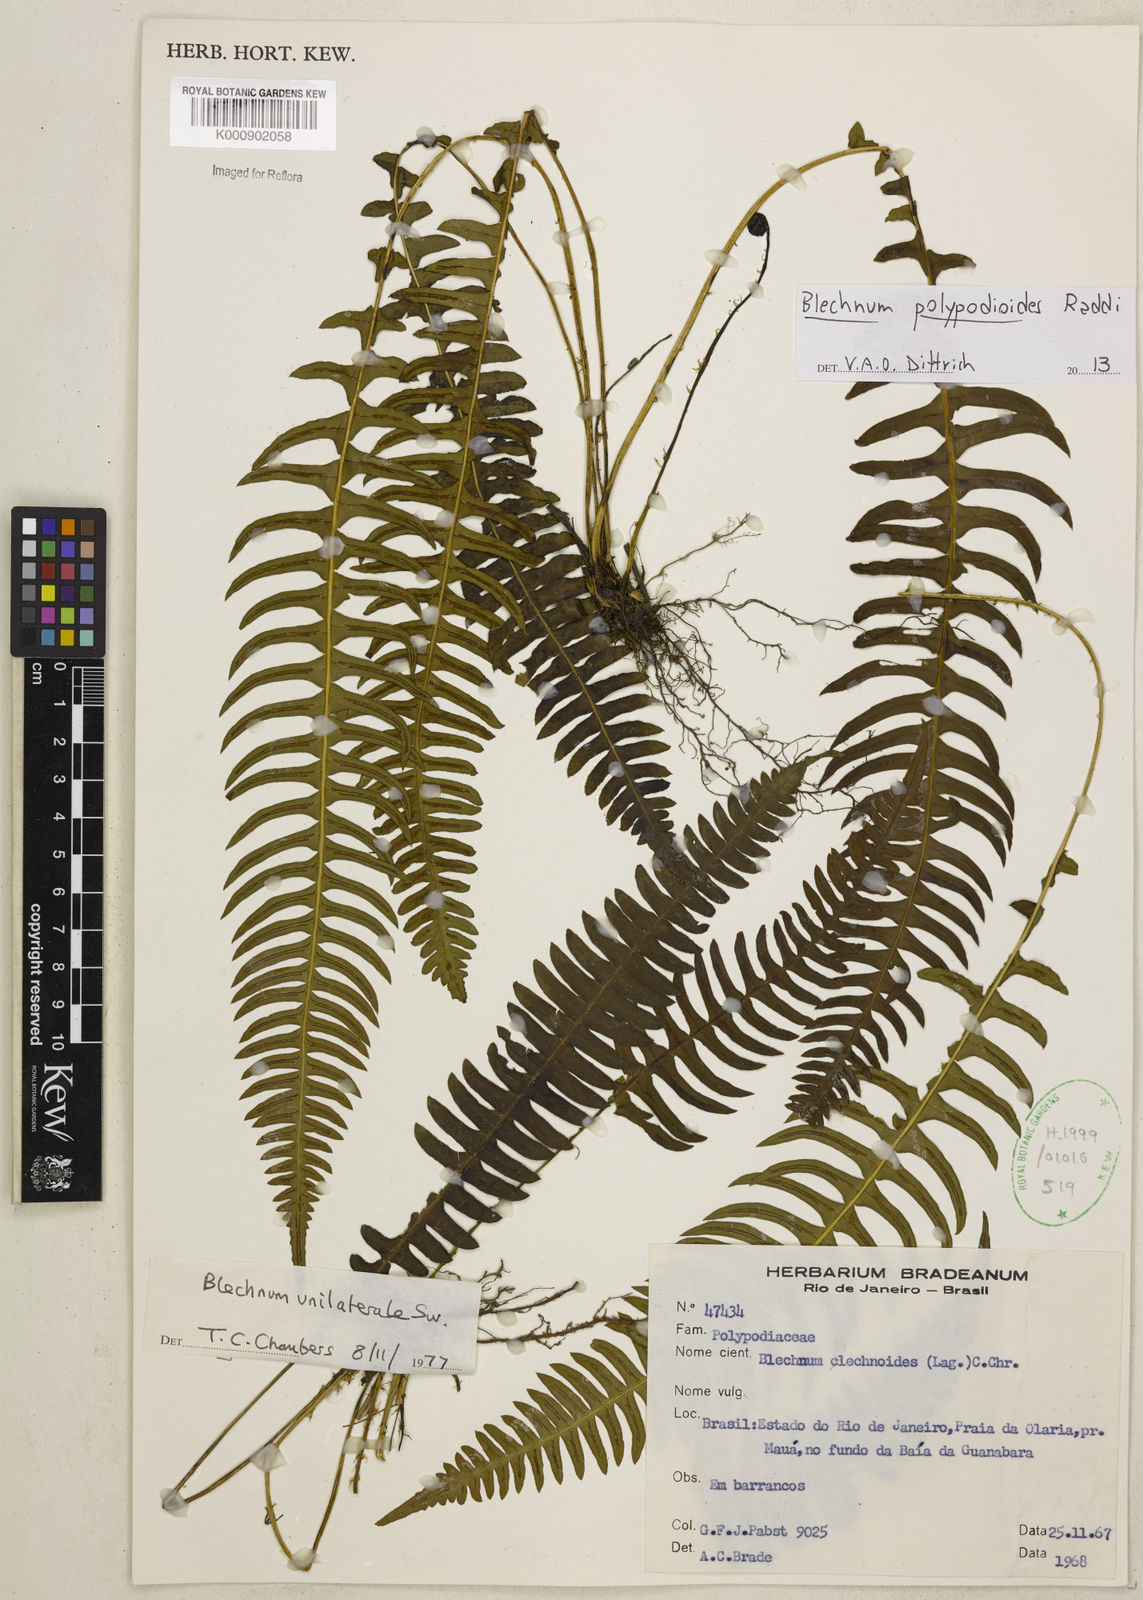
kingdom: Plantae
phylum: Tracheophyta
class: Polypodiopsida
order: Polypodiales
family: Blechnaceae
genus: Blechnum
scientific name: Blechnum polypodioides
